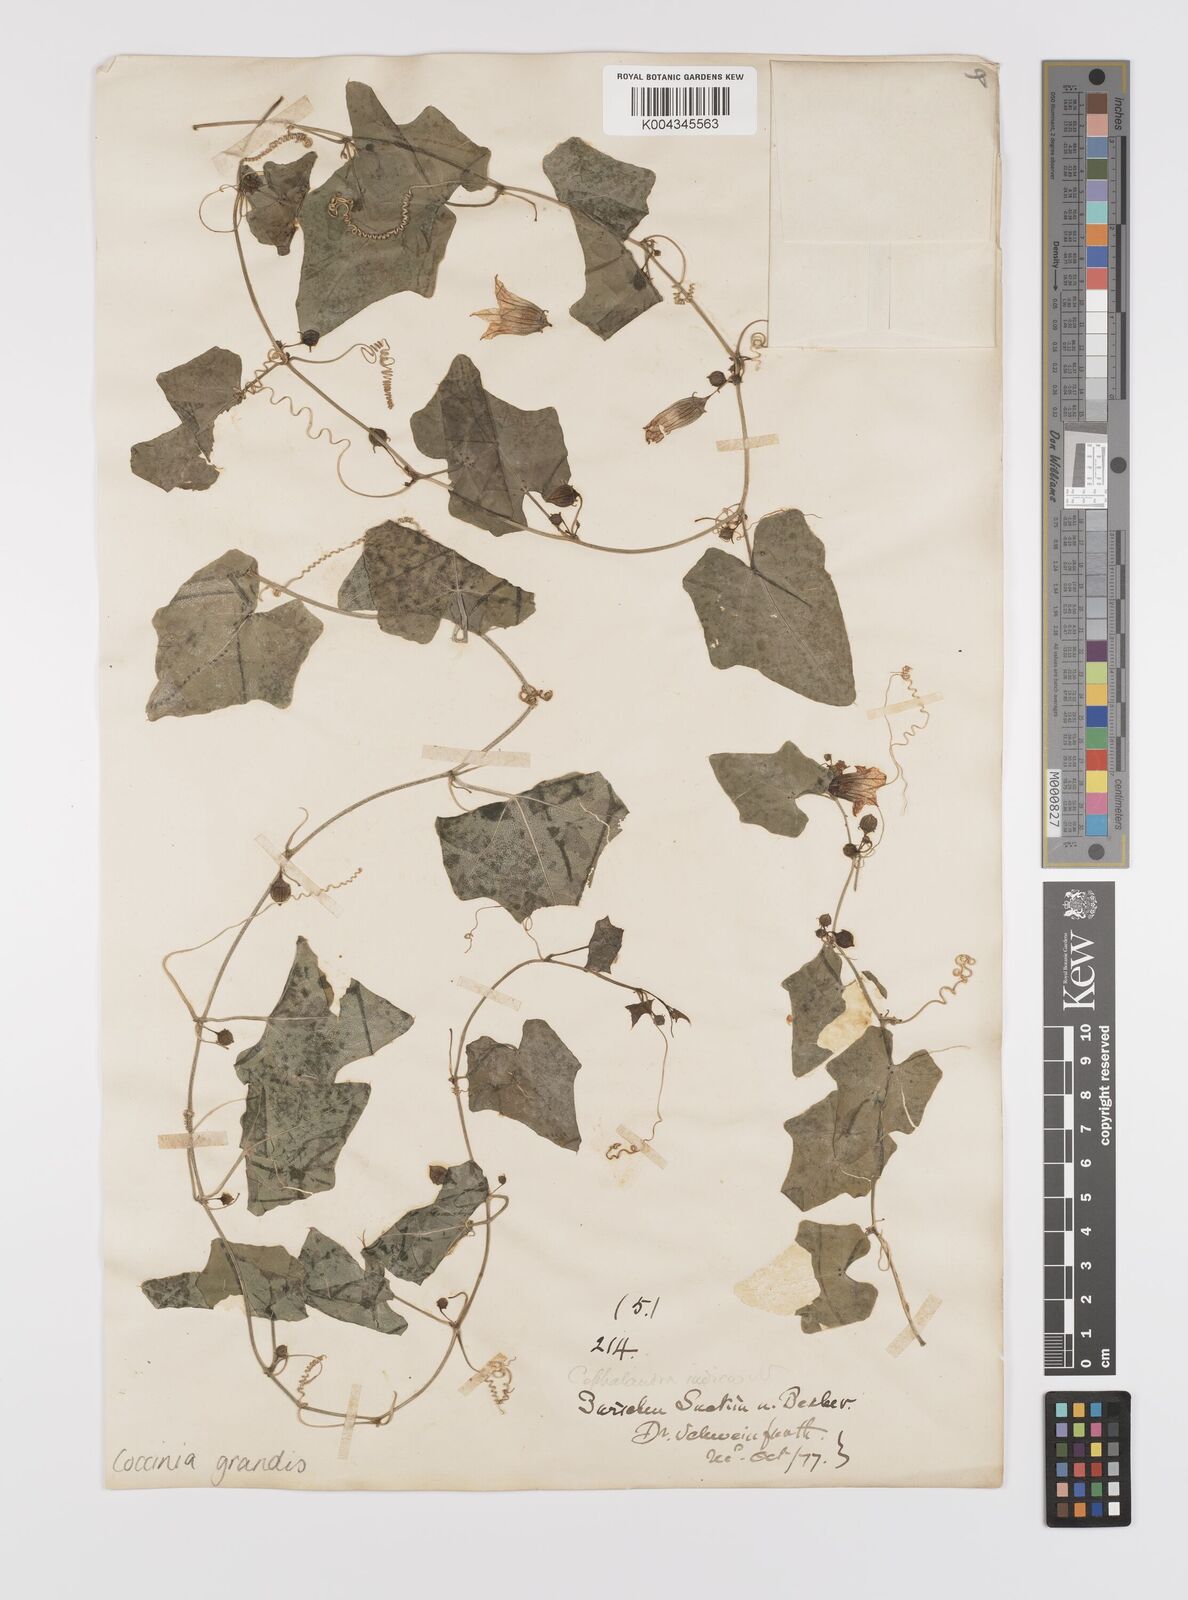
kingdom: Plantae
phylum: Tracheophyta
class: Magnoliopsida
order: Cucurbitales
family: Cucurbitaceae
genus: Coccinia
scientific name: Coccinia grandis
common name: Ivy gourd
